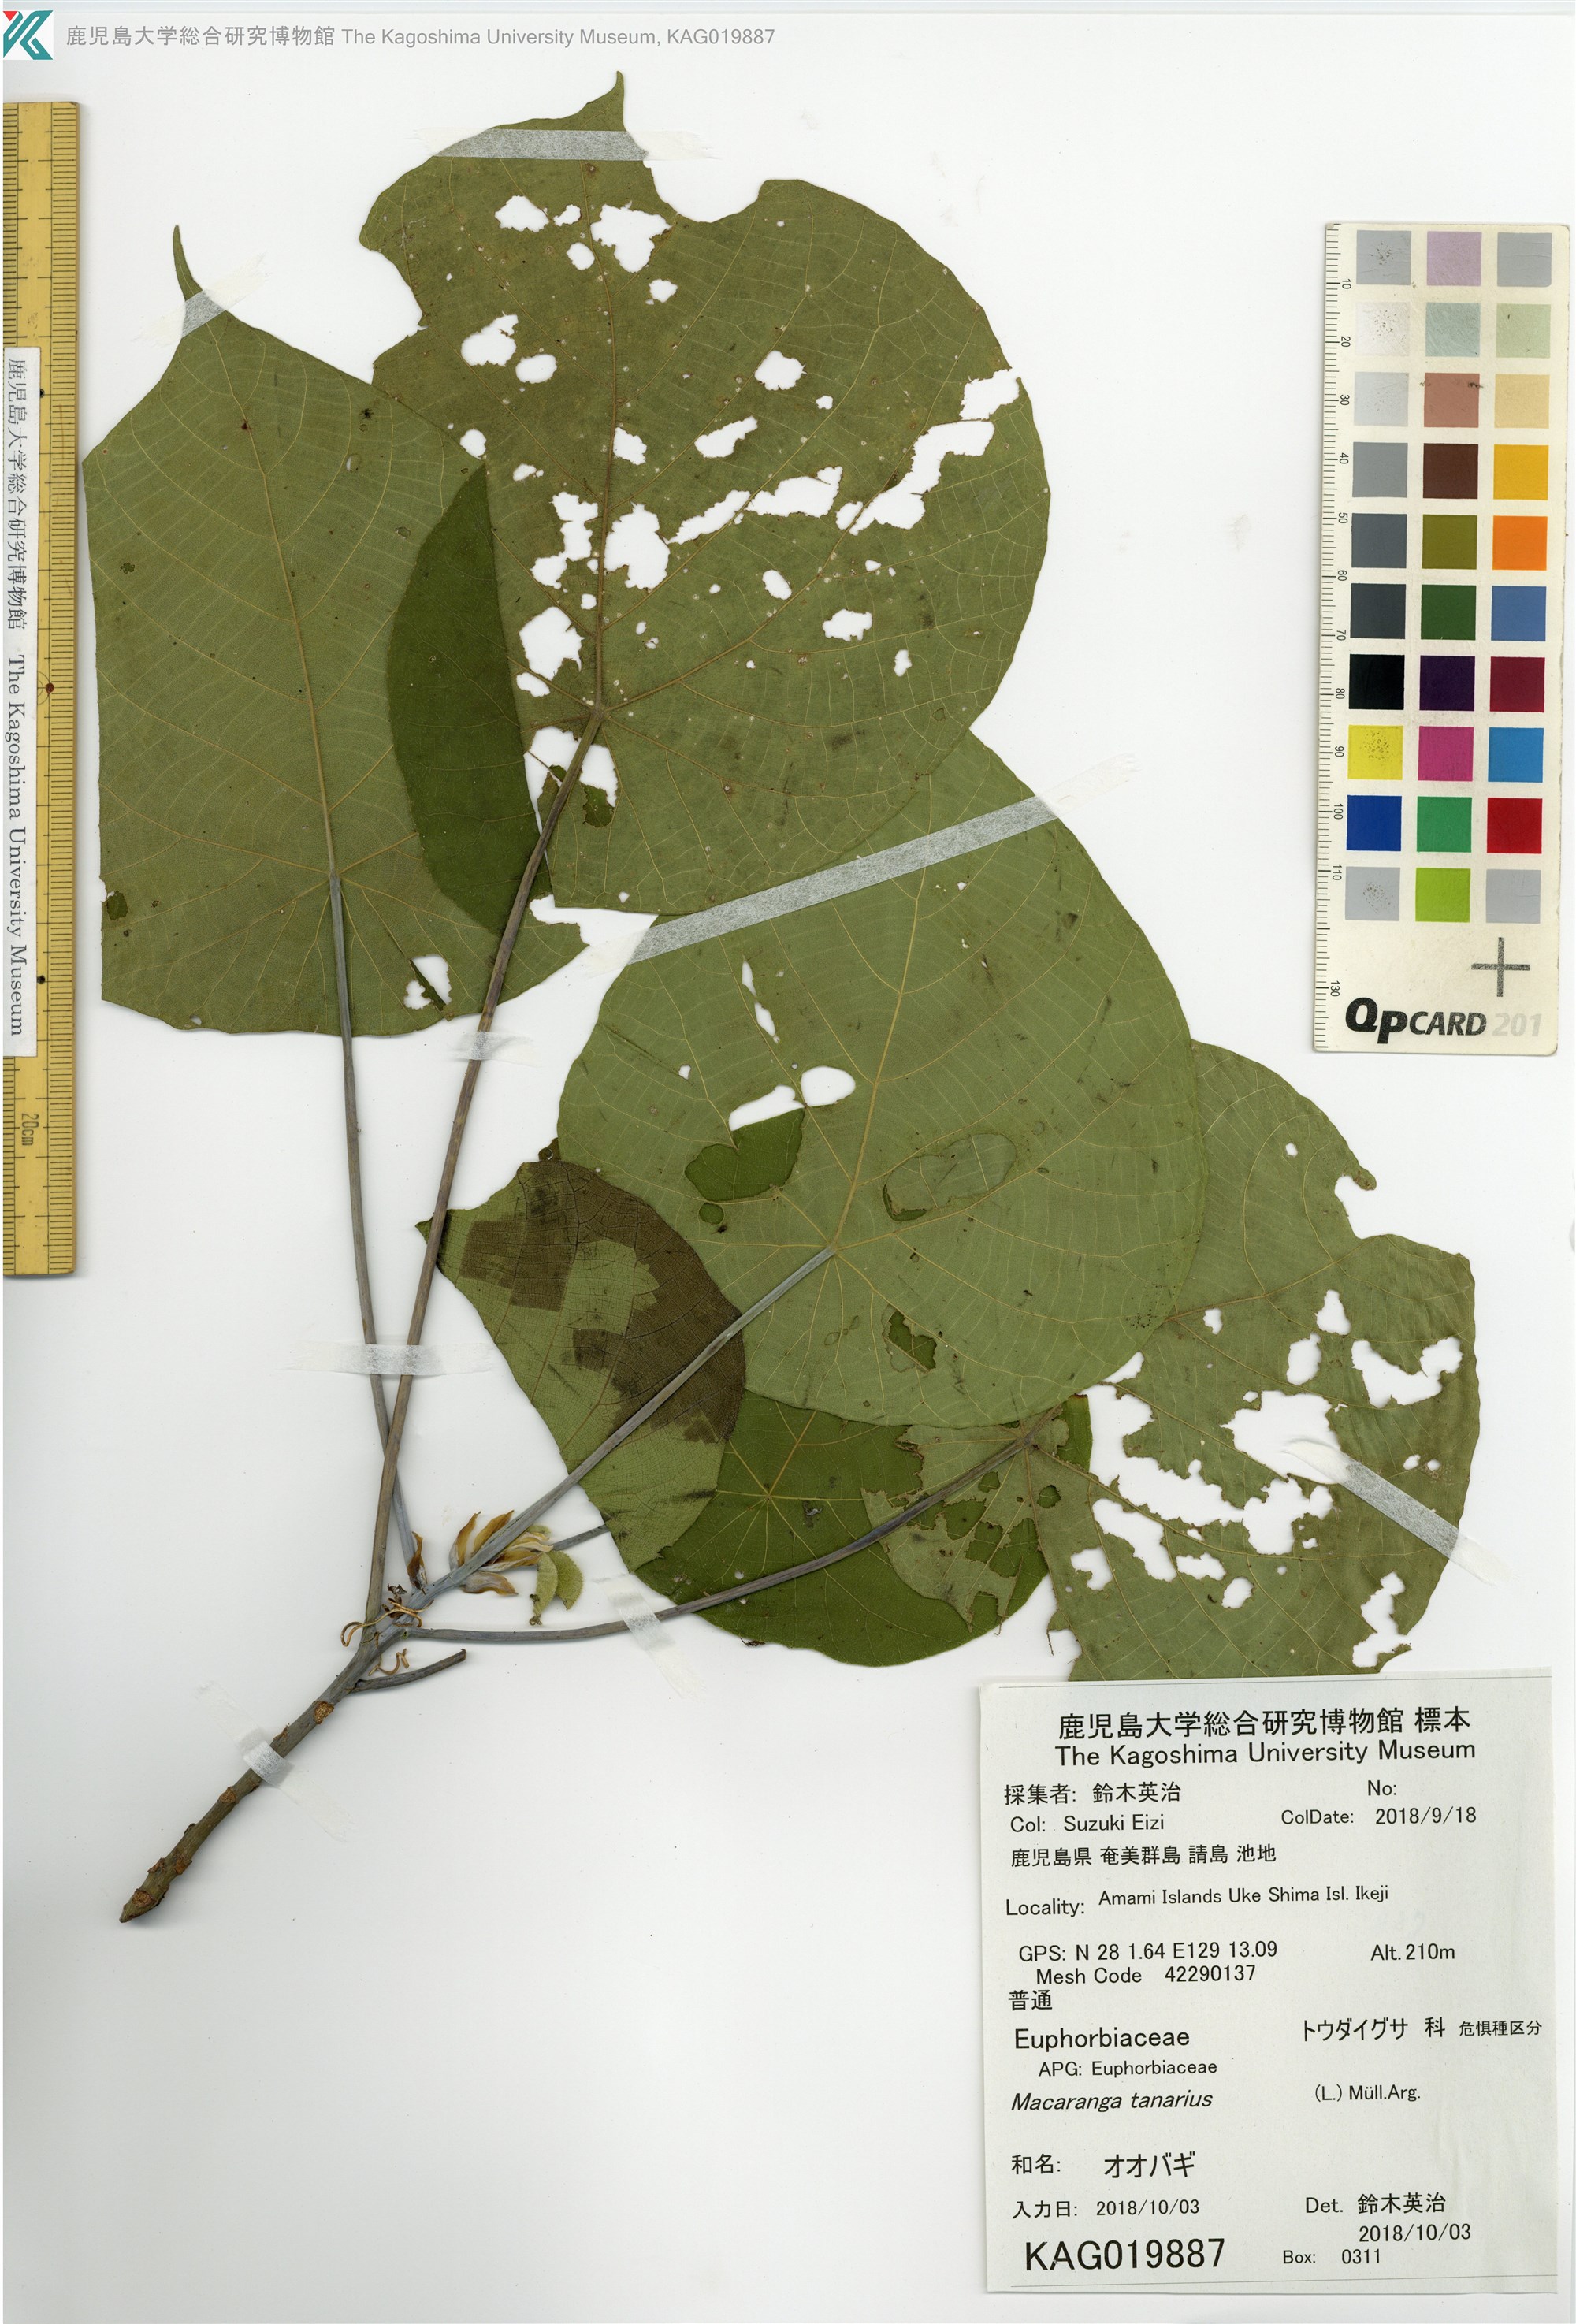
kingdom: Plantae
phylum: Tracheophyta
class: Magnoliopsida
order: Malpighiales
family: Euphorbiaceae
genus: Macaranga
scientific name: Macaranga tanarius
